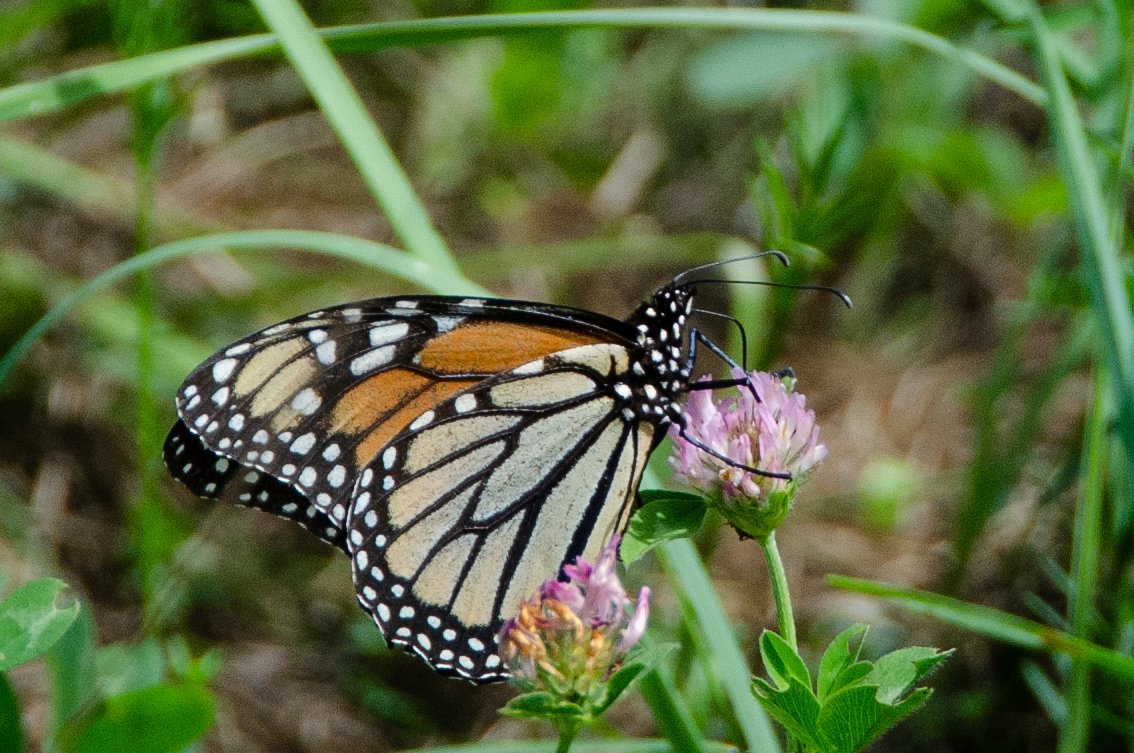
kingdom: Animalia
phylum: Arthropoda
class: Insecta
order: Lepidoptera
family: Nymphalidae
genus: Danaus
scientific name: Danaus plexippus
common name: Monarch
